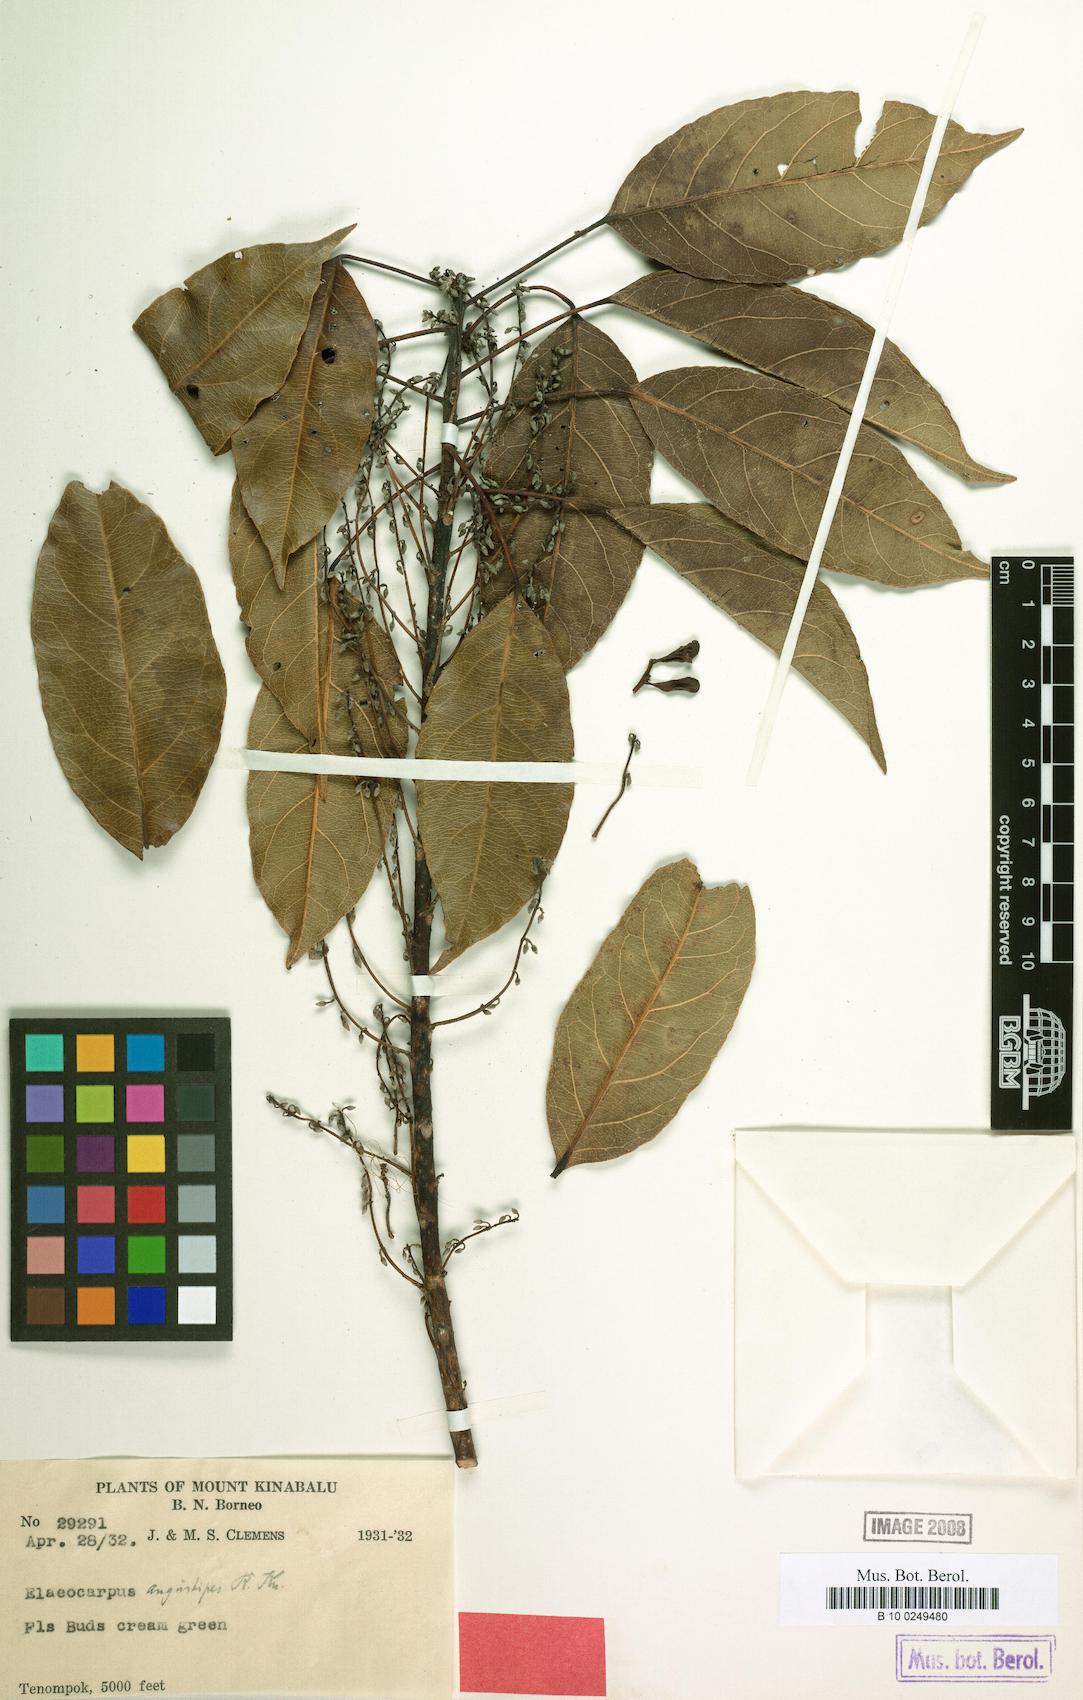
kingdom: Plantae
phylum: Tracheophyta
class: Magnoliopsida
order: Oxalidales
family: Elaeocarpaceae
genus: Elaeocarpus
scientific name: Elaeocarpus angustipes
